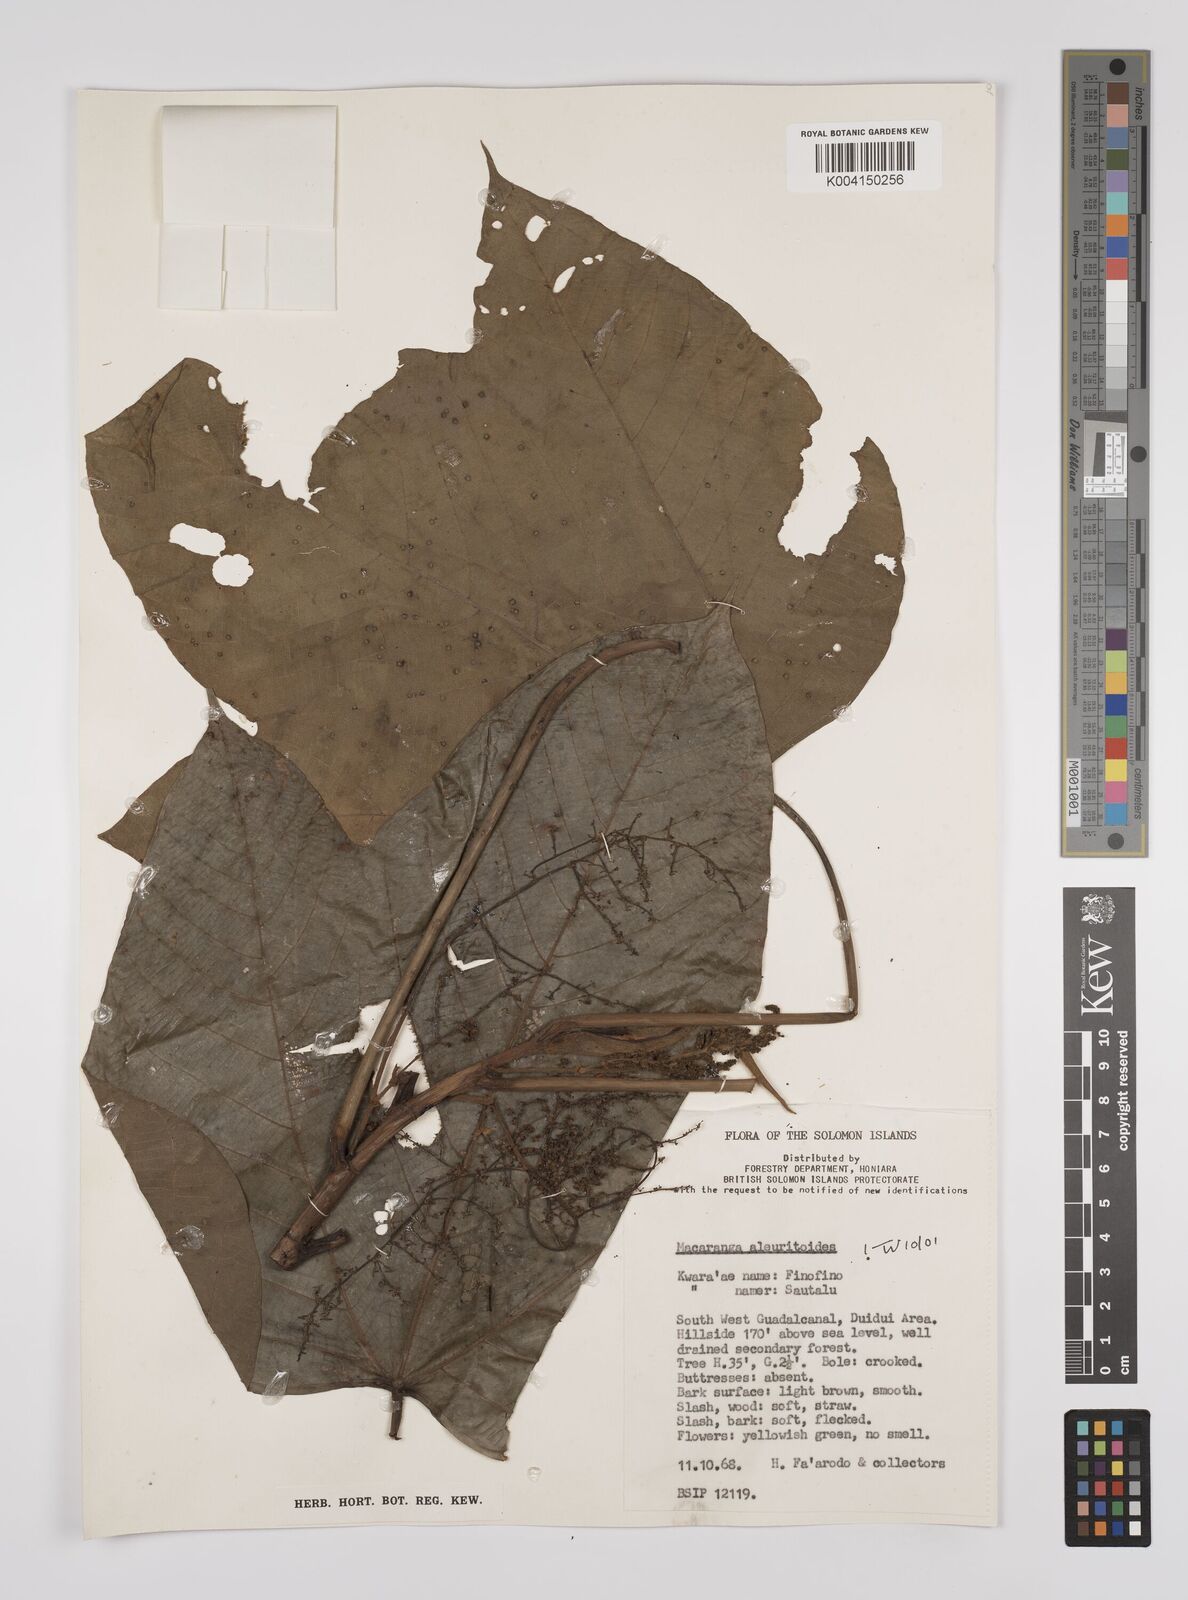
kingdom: Plantae
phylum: Tracheophyta
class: Magnoliopsida
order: Malpighiales
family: Euphorbiaceae
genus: Macaranga
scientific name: Macaranga aleuritoides
